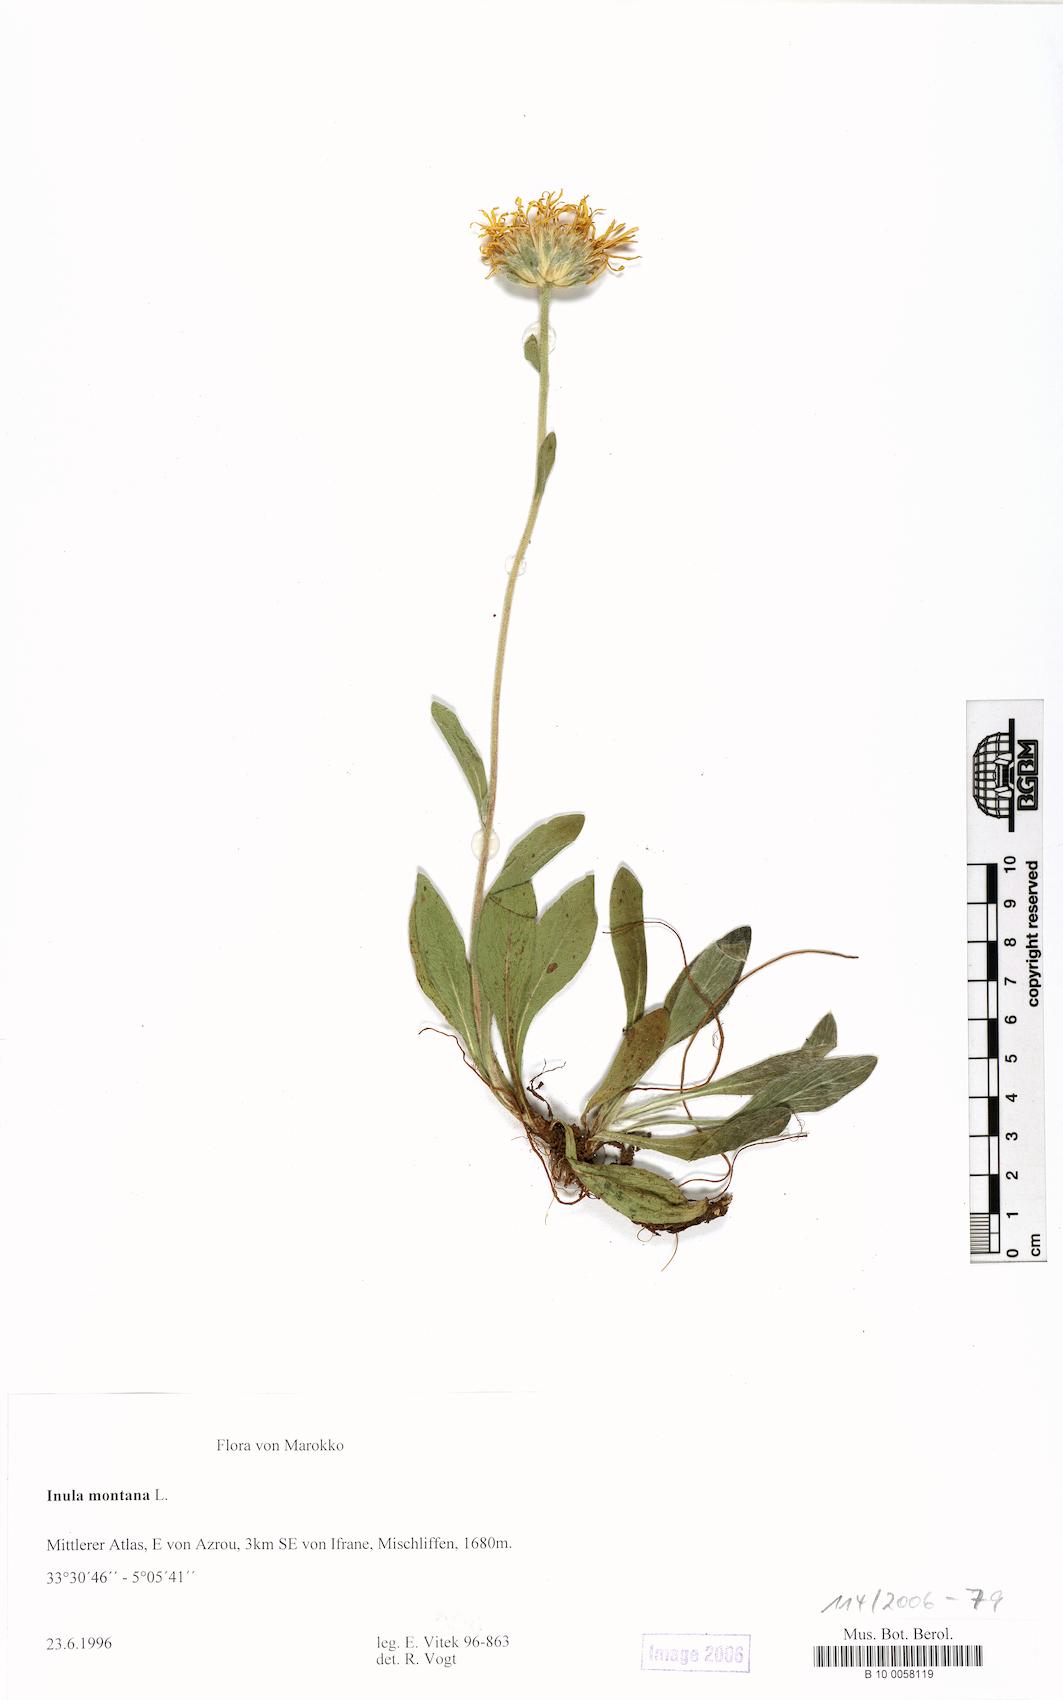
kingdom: Plantae
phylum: Tracheophyta
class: Magnoliopsida
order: Asterales
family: Asteraceae
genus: Pentanema
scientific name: Pentanema montanum
